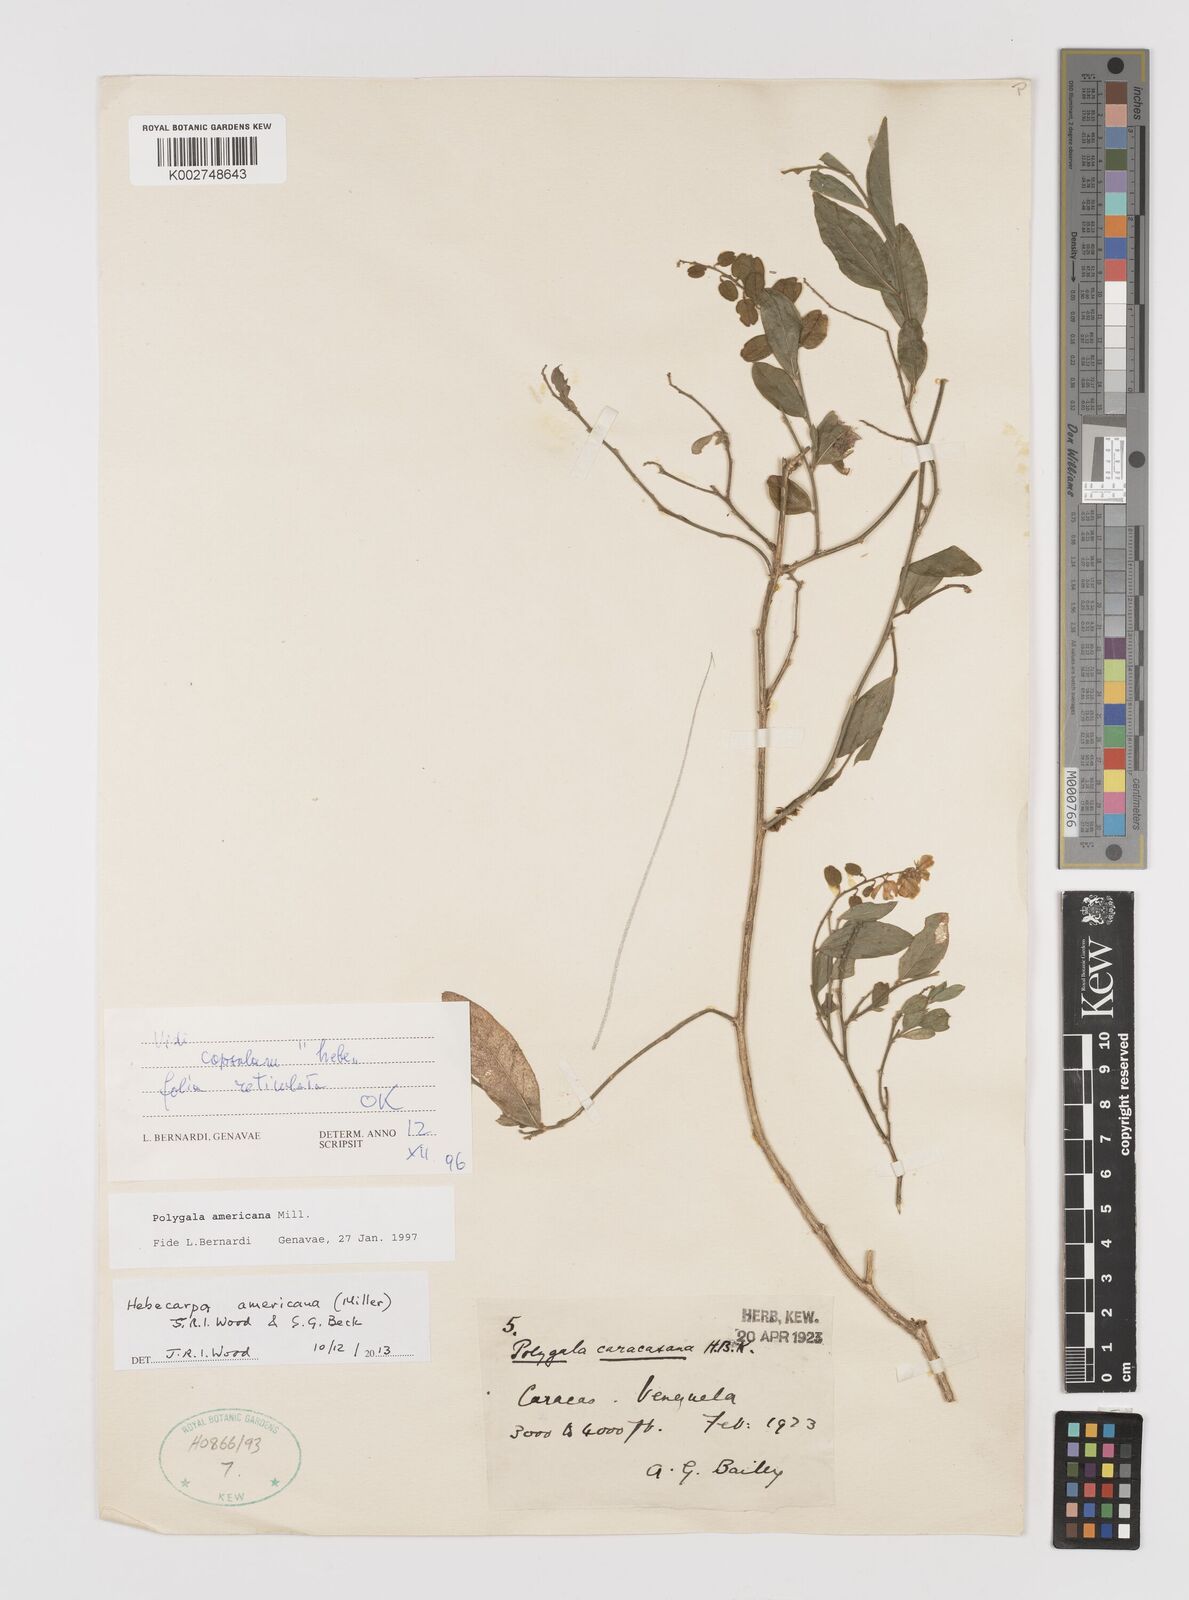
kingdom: Plantae
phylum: Tracheophyta
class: Magnoliopsida
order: Fabales
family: Polygalaceae
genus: Hebecarpa
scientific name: Hebecarpa americana
